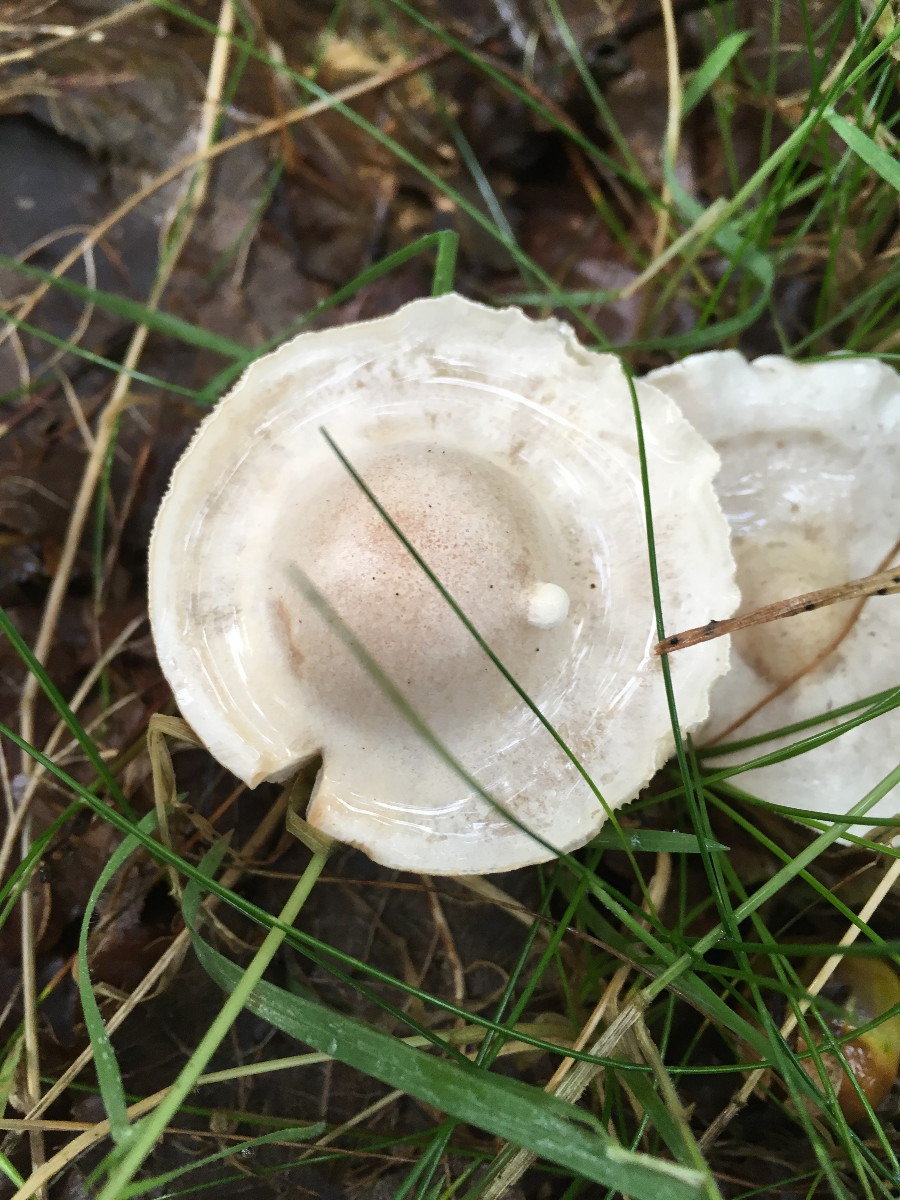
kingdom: Fungi
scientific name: Fungi
